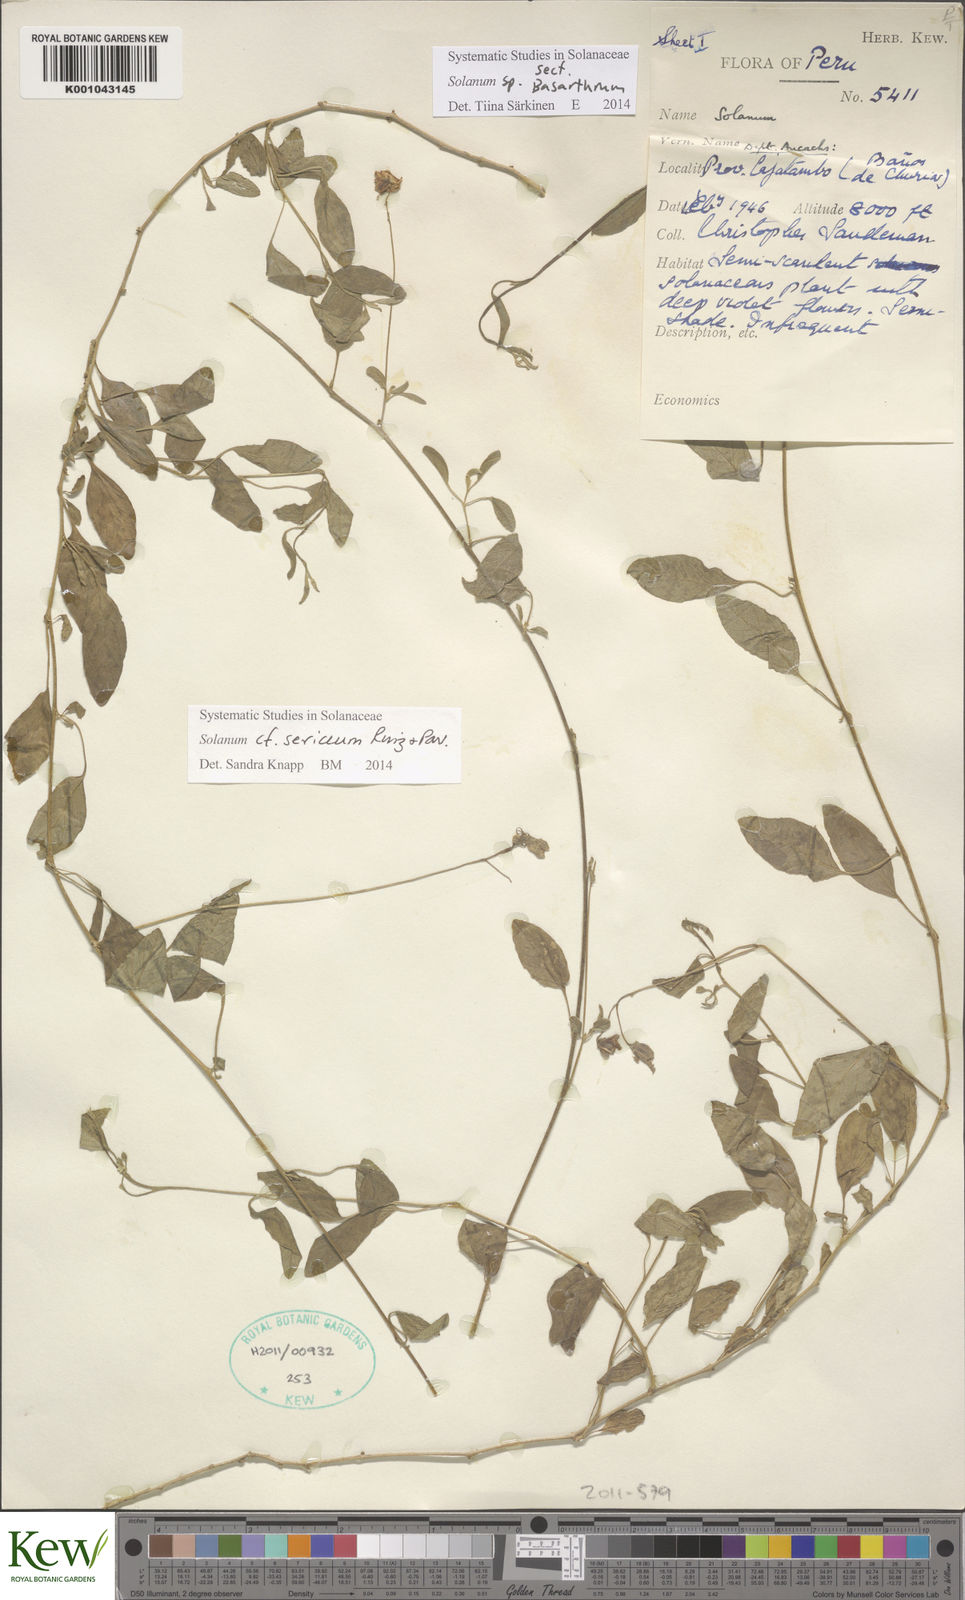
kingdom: Plantae
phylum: Tracheophyta
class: Magnoliopsida
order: Solanales
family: Solanaceae
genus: Solanum
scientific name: Solanum sericeum
